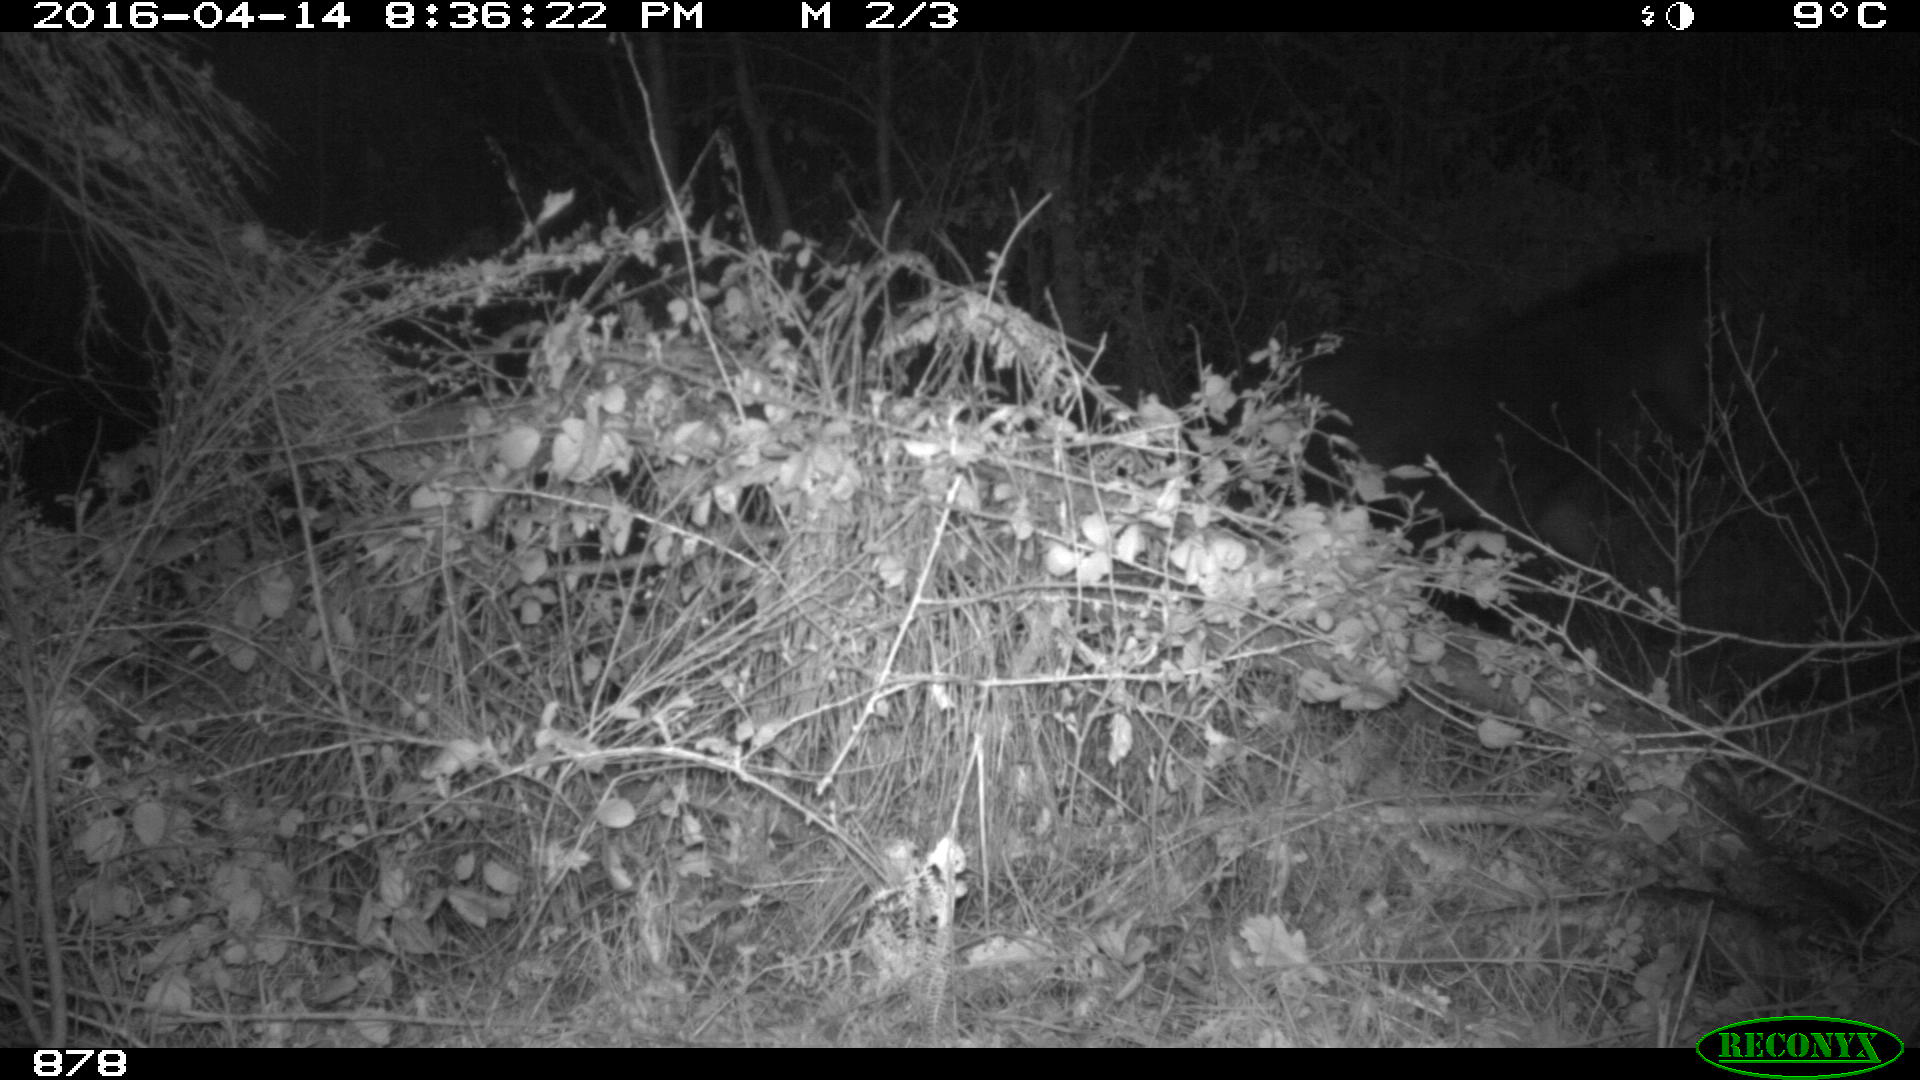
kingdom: Animalia
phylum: Chordata
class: Mammalia
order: Perissodactyla
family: Equidae
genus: Equus
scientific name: Equus caballus
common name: Horse
